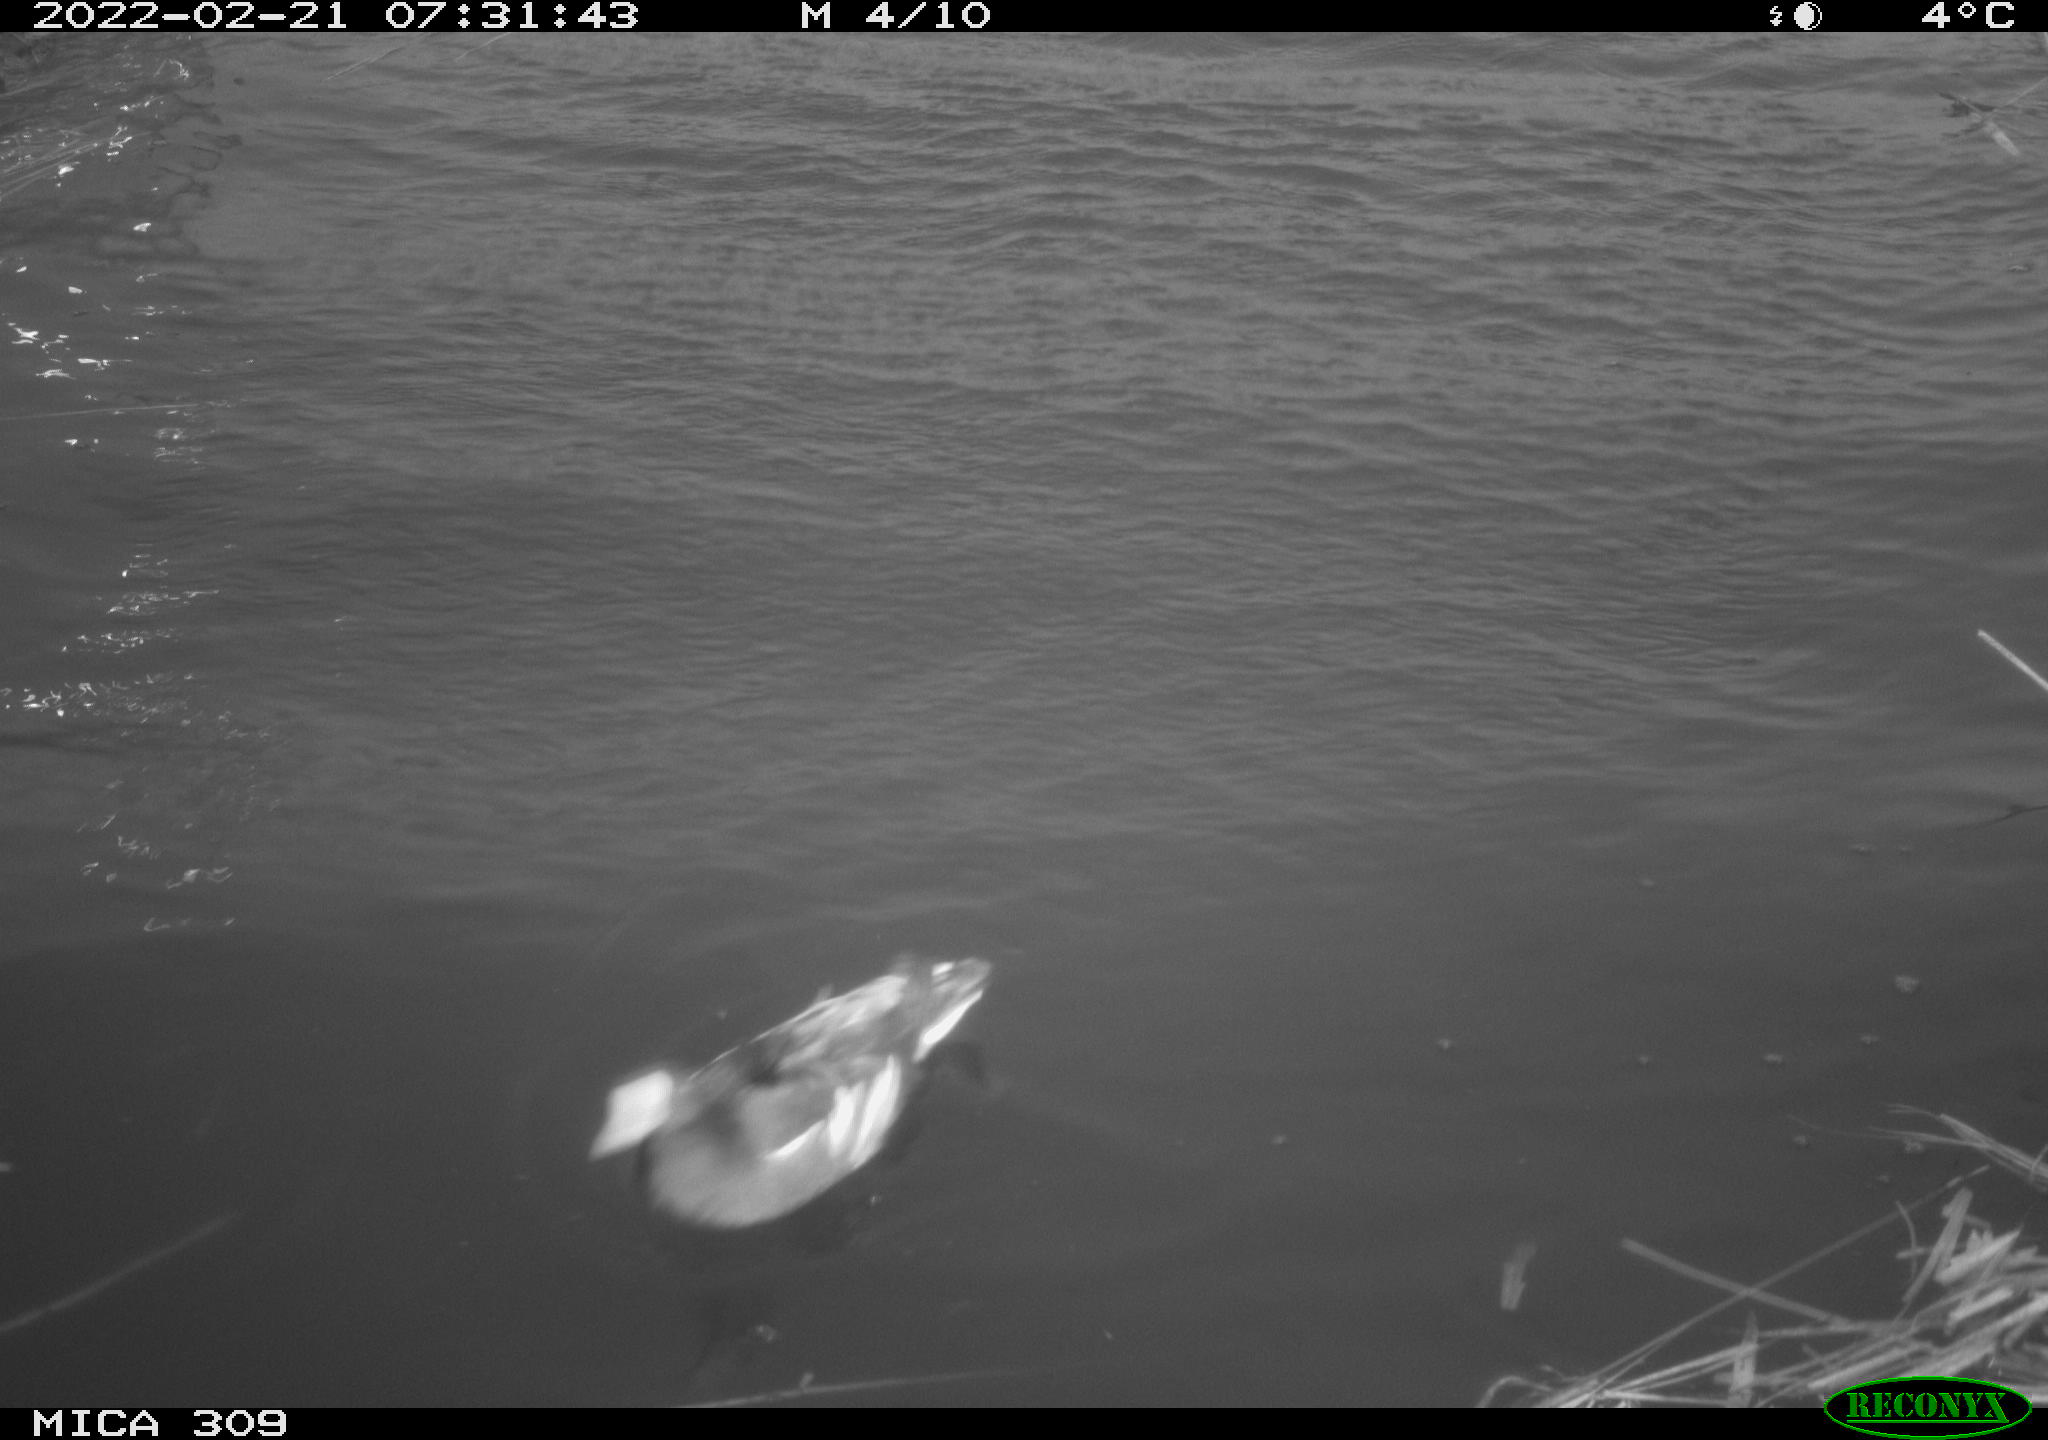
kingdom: Animalia
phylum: Chordata
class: Aves
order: Gruiformes
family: Rallidae
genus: Gallinula
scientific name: Gallinula chloropus
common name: Common moorhen
